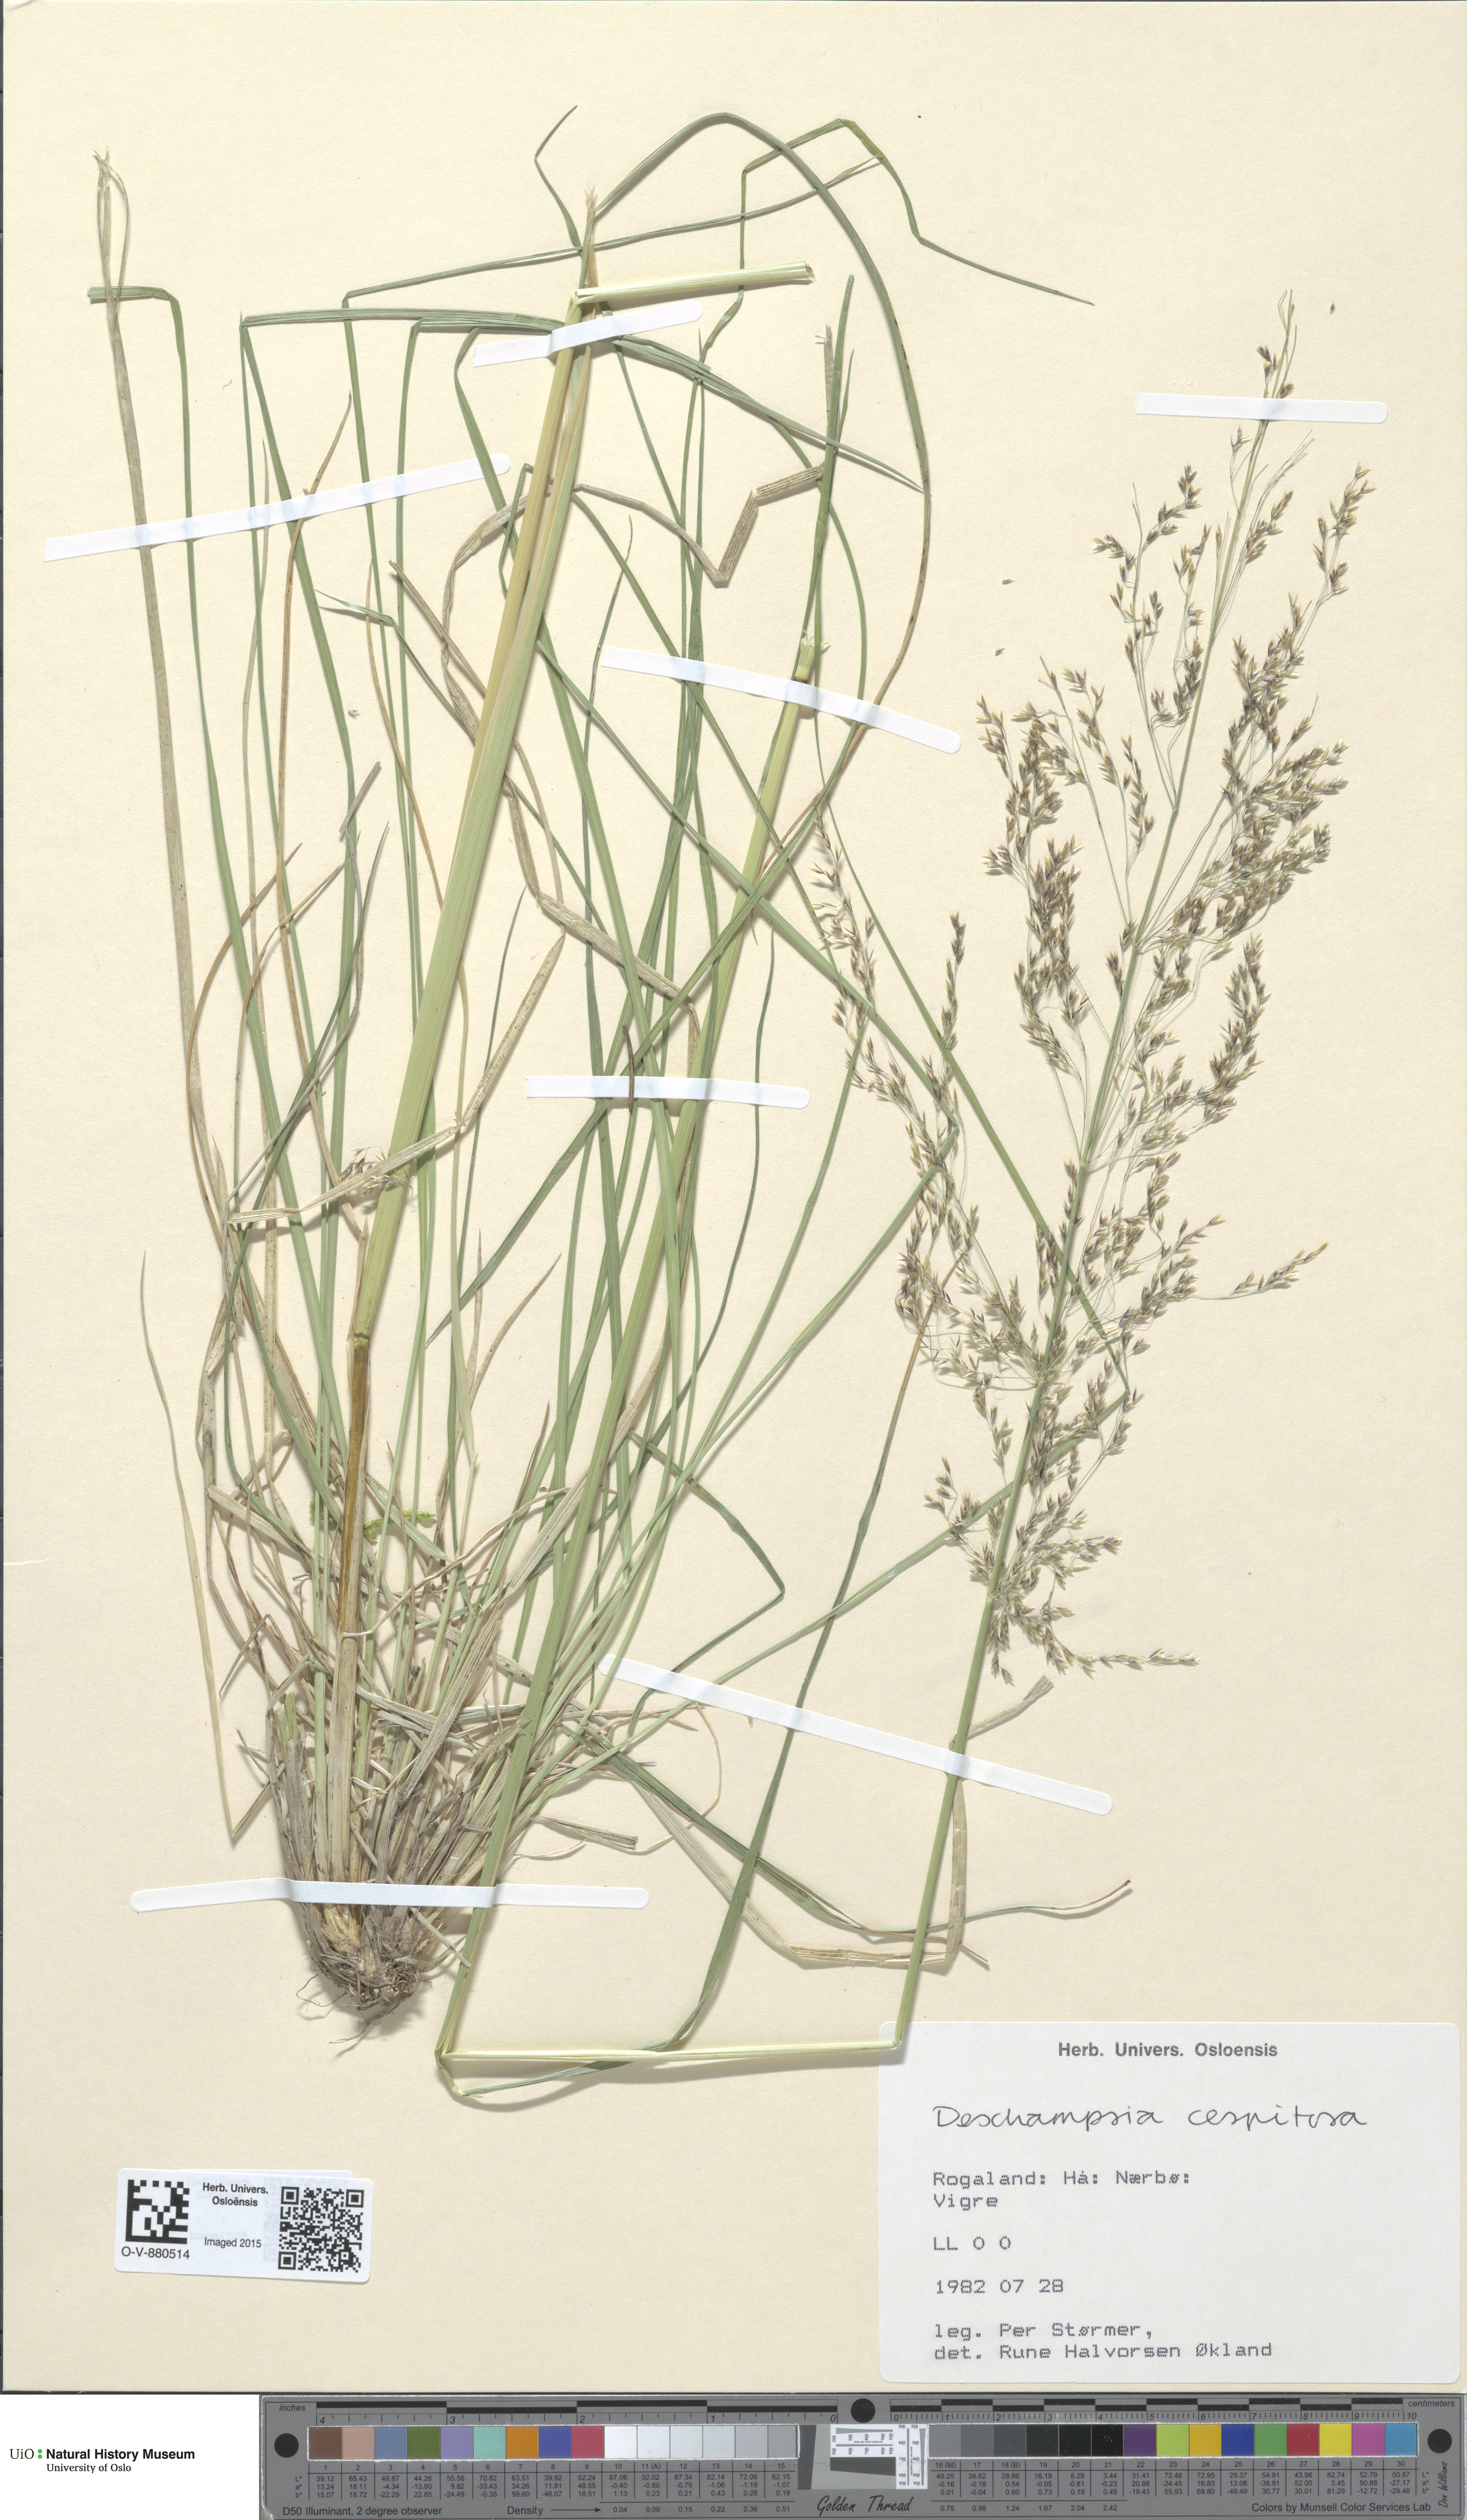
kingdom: Plantae
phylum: Tracheophyta
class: Liliopsida
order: Poales
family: Poaceae
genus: Deschampsia
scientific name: Deschampsia cespitosa
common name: Tufted hair-grass
